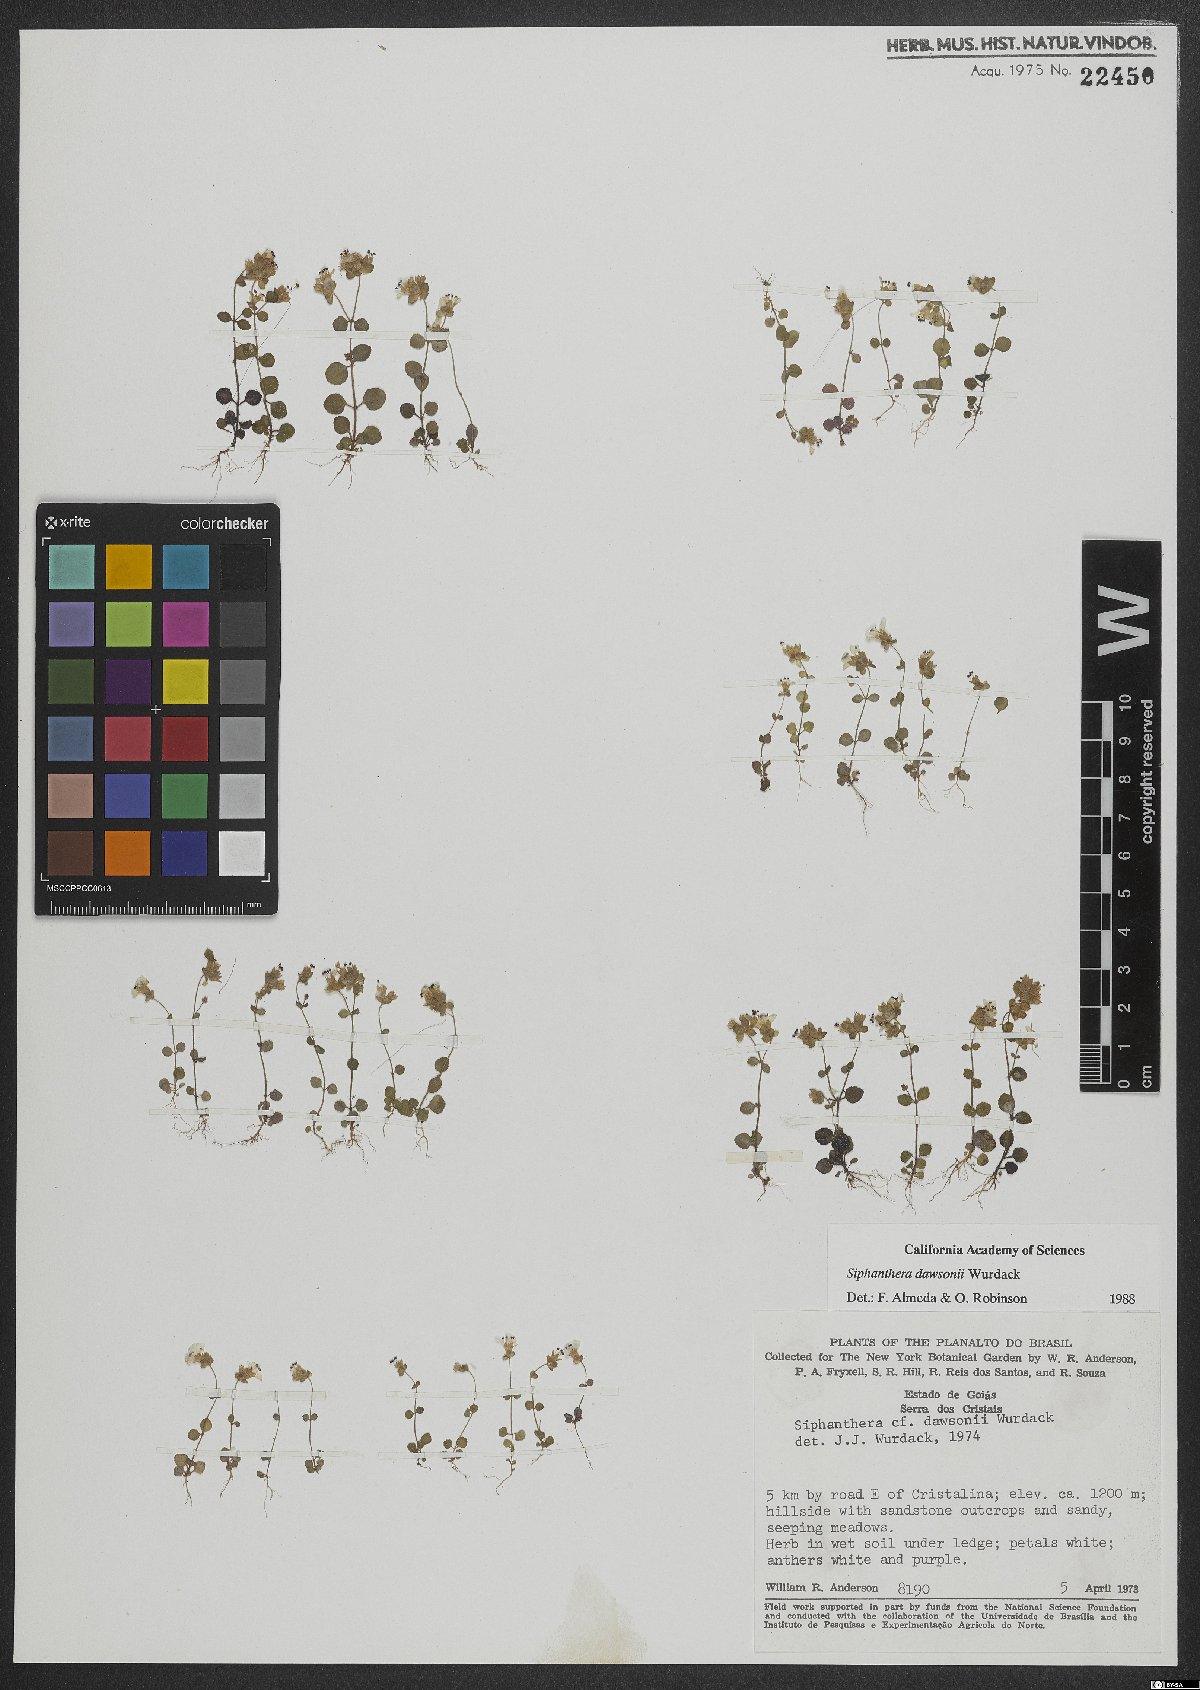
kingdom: Plantae
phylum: Tracheophyta
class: Magnoliopsida
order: Myrtales
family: Melastomataceae
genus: Siphanthera
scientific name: Siphanthera dawsonii
